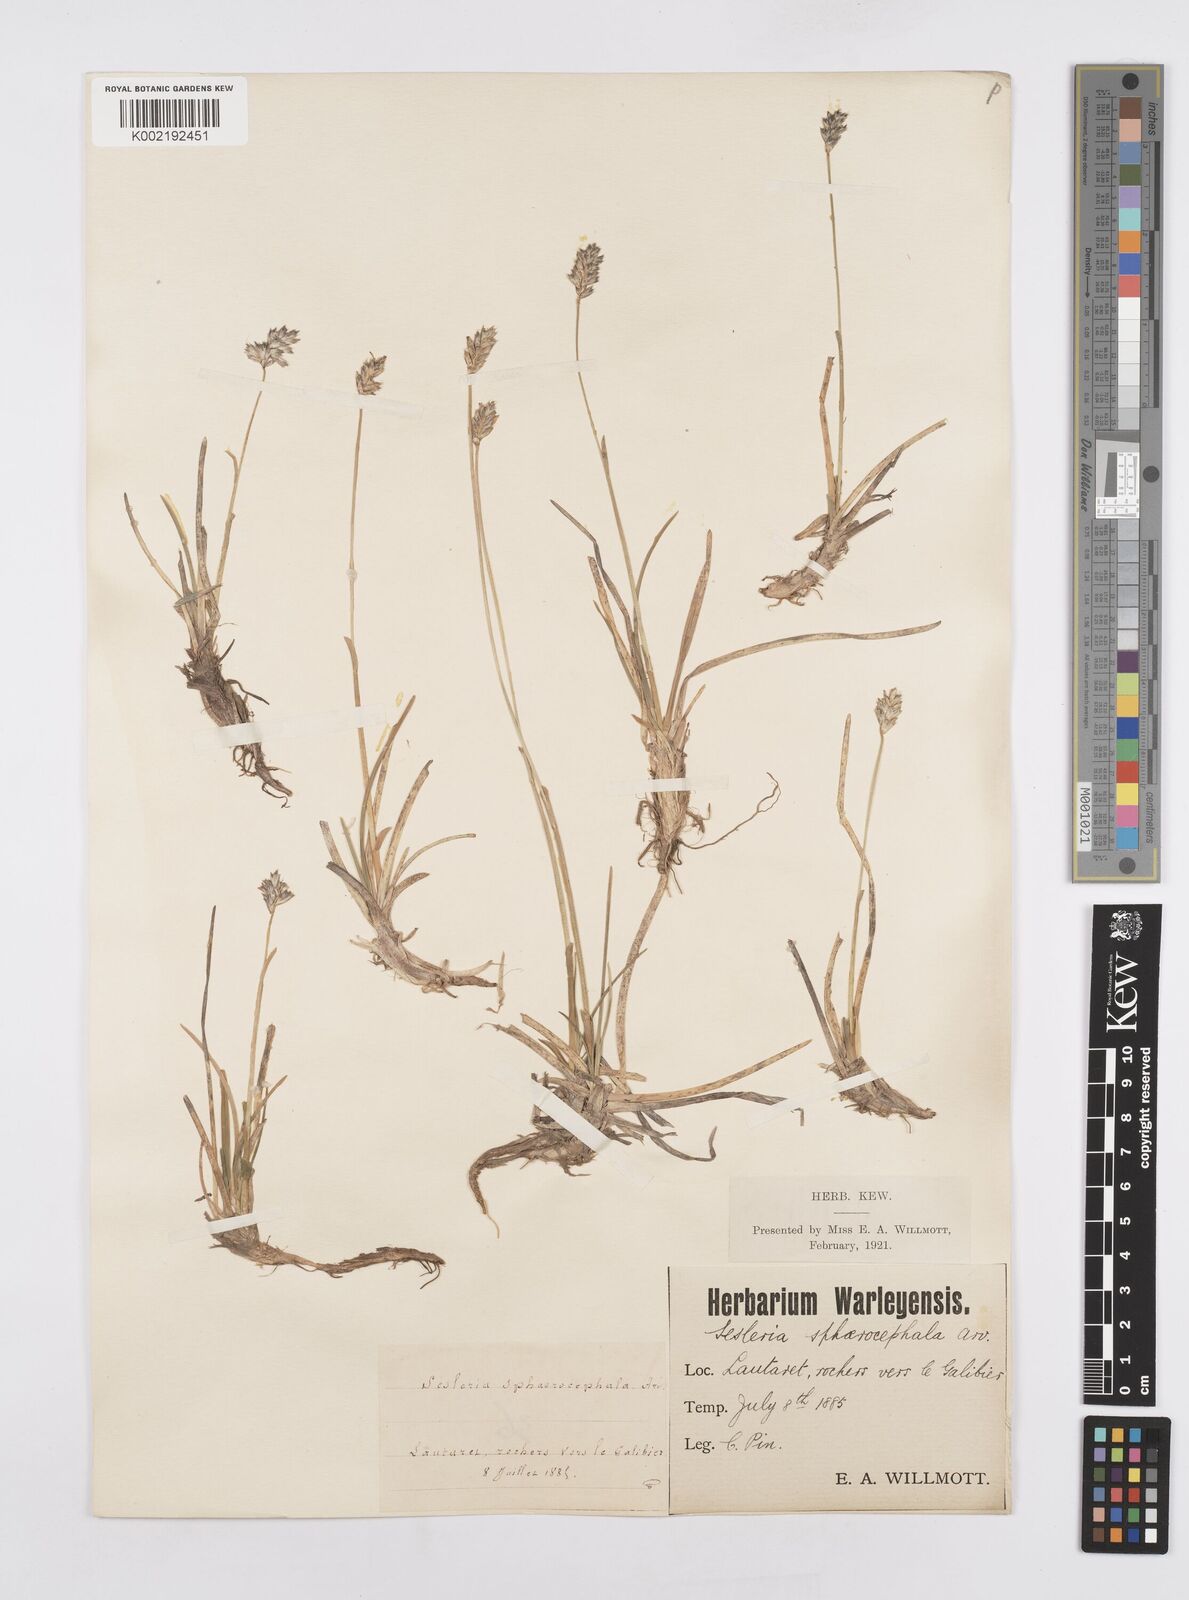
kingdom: Plantae
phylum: Tracheophyta
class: Liliopsida
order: Poales
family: Poaceae
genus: Sesleriella
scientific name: Sesleriella sphaerocephala
